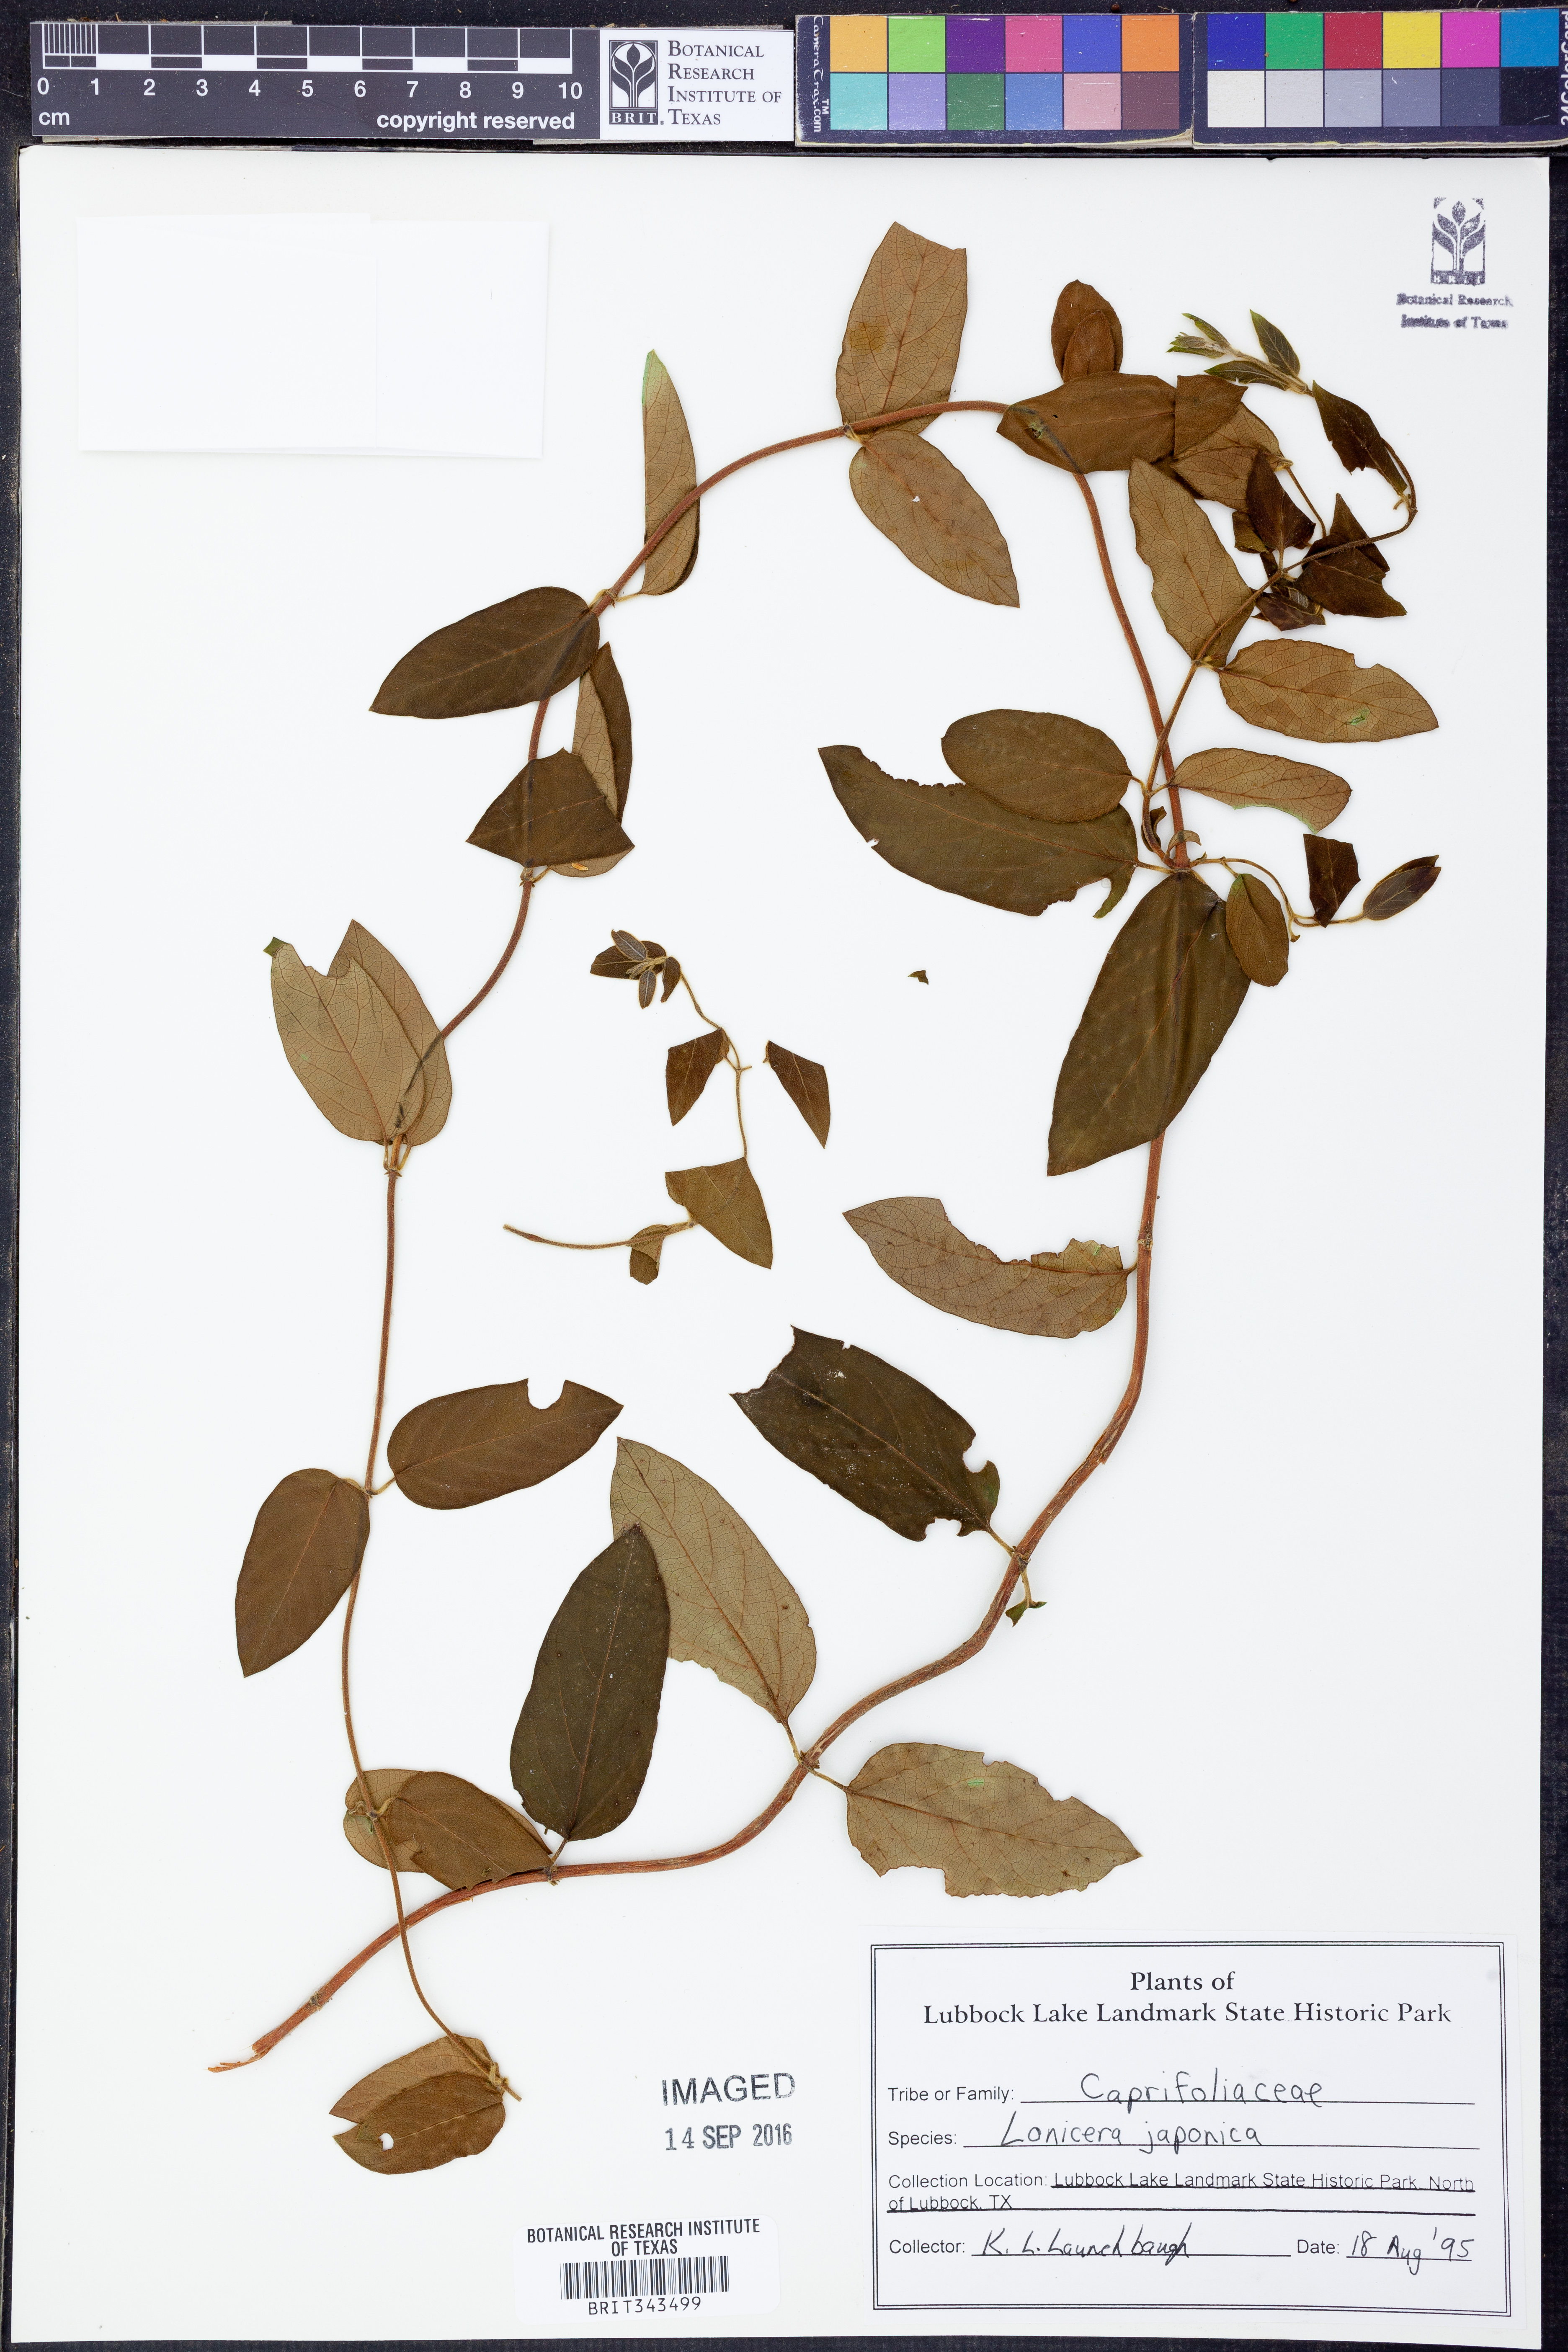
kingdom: Plantae
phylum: Tracheophyta
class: Magnoliopsida
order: Dipsacales
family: Caprifoliaceae
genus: Lonicera
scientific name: Lonicera japonica
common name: Japanese honeysuckle
